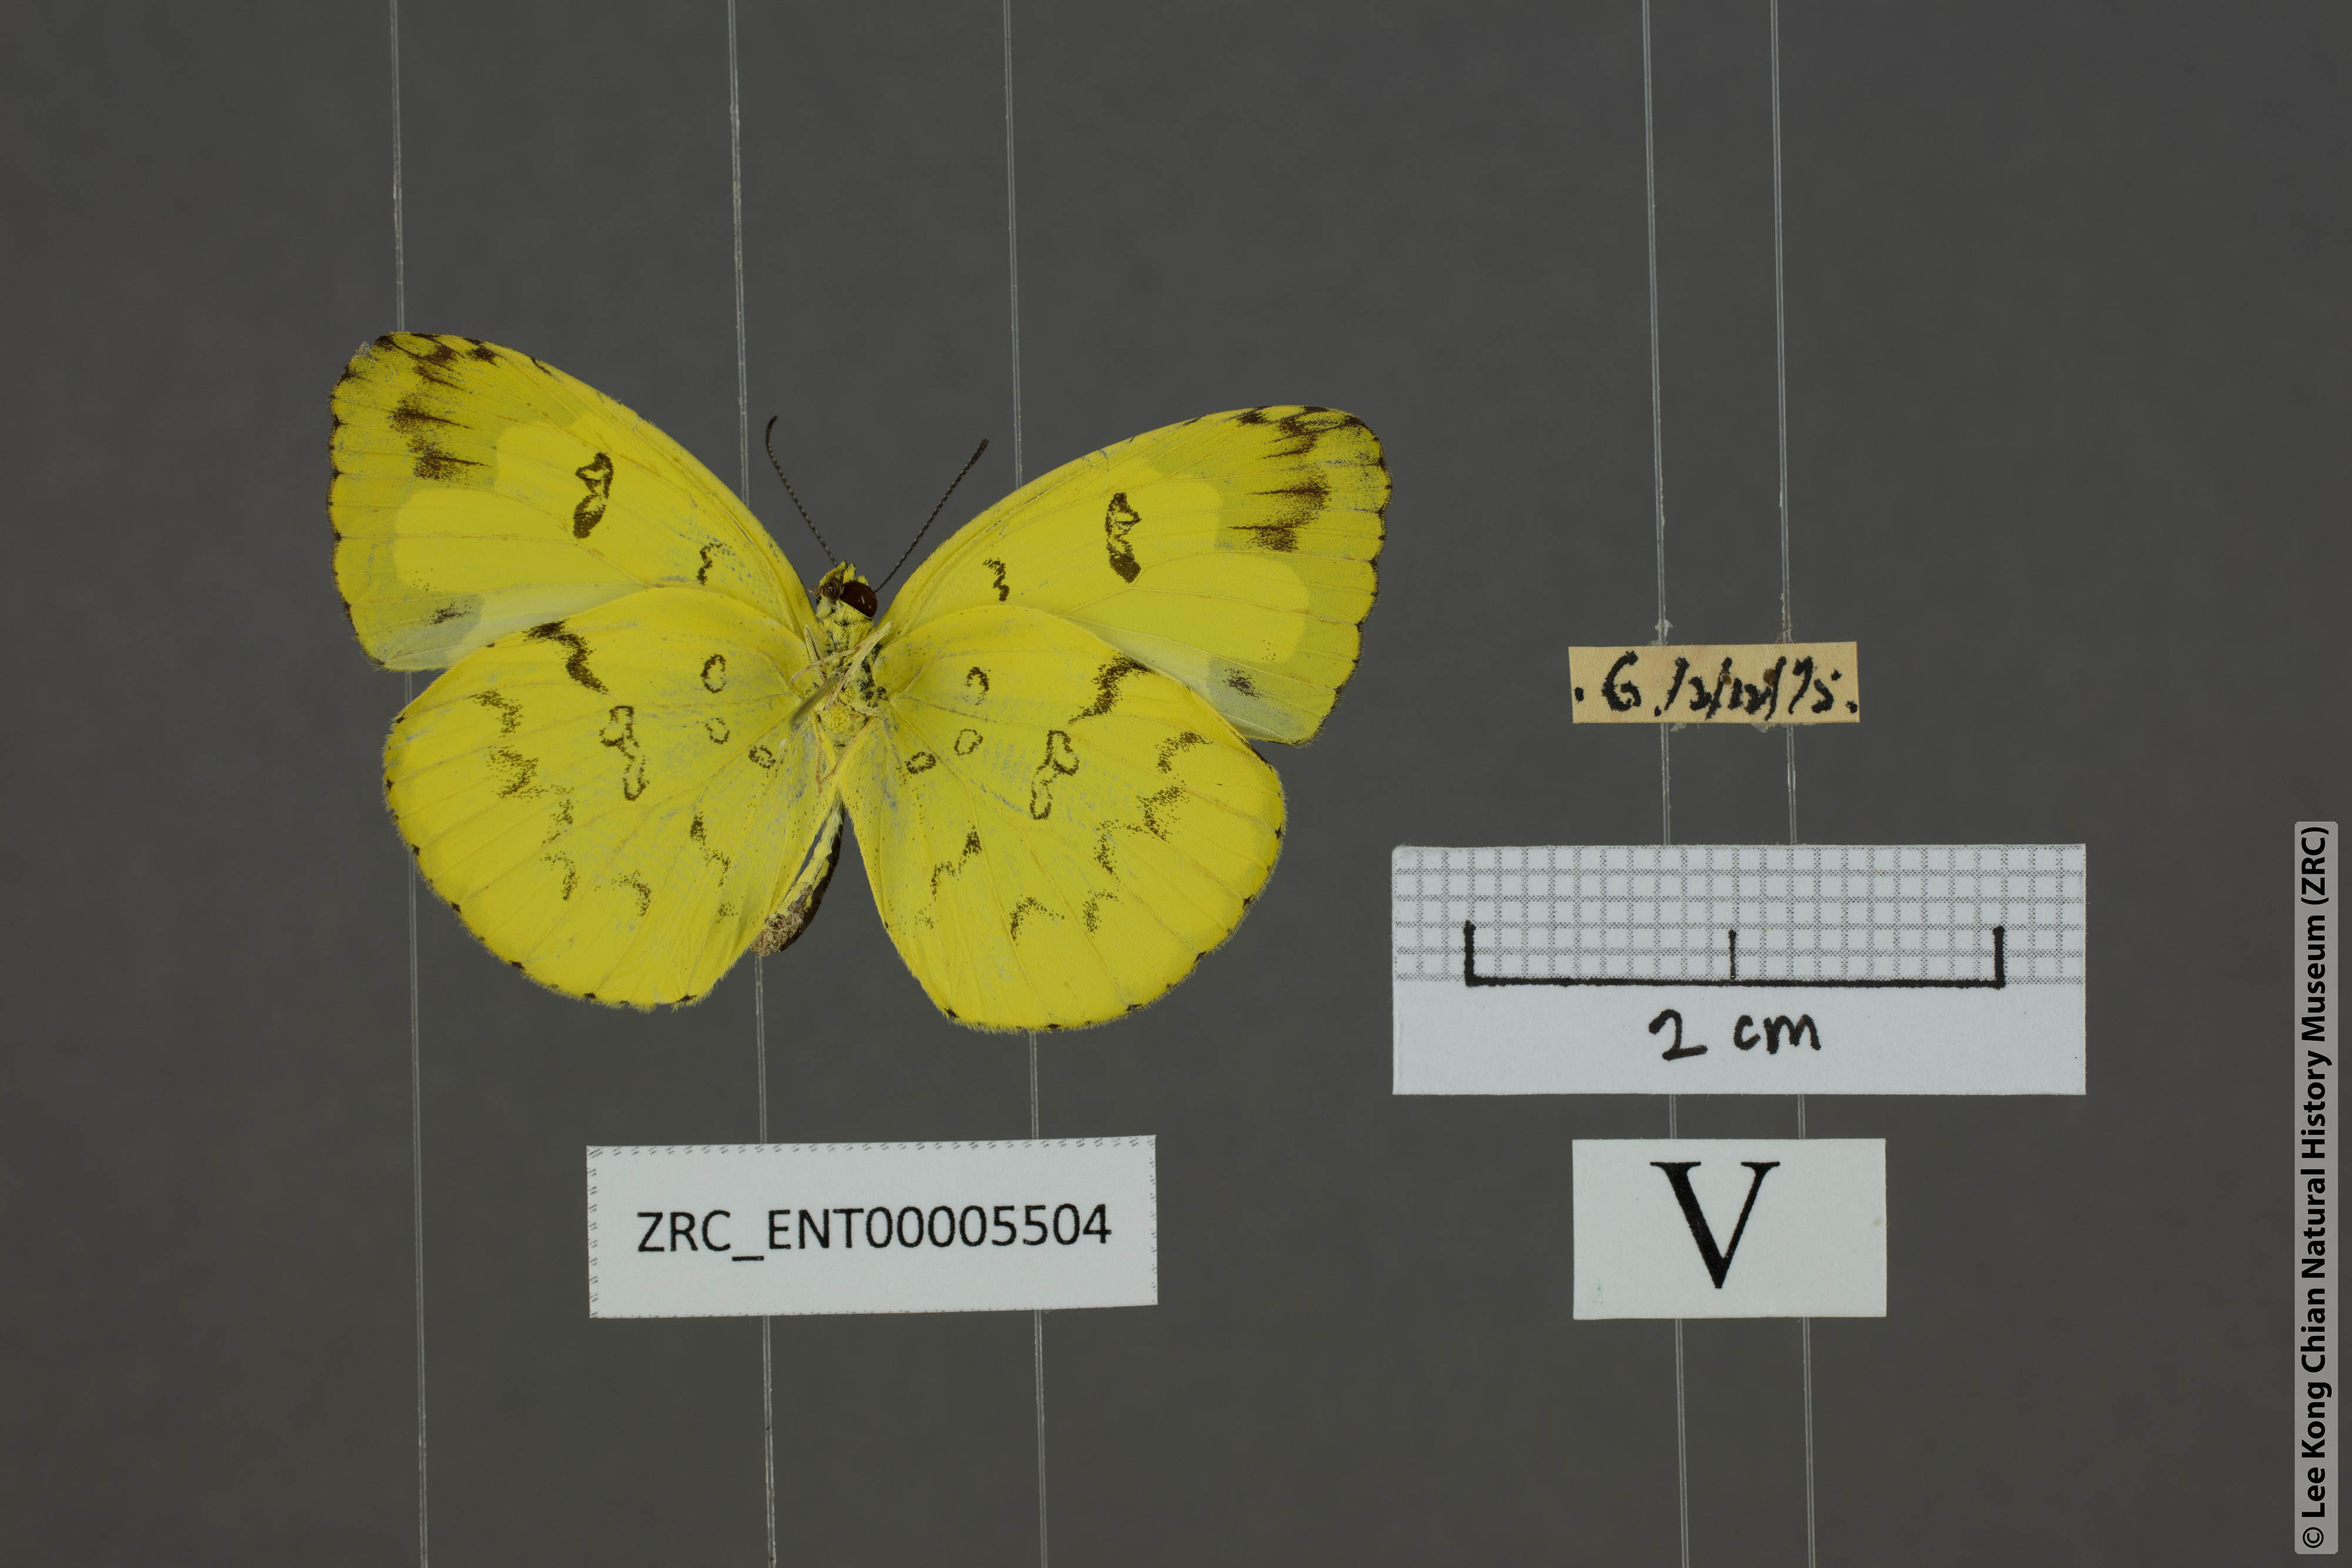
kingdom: Animalia
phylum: Arthropoda
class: Insecta
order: Lepidoptera
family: Pieridae
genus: Eurema
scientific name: Eurema ada
